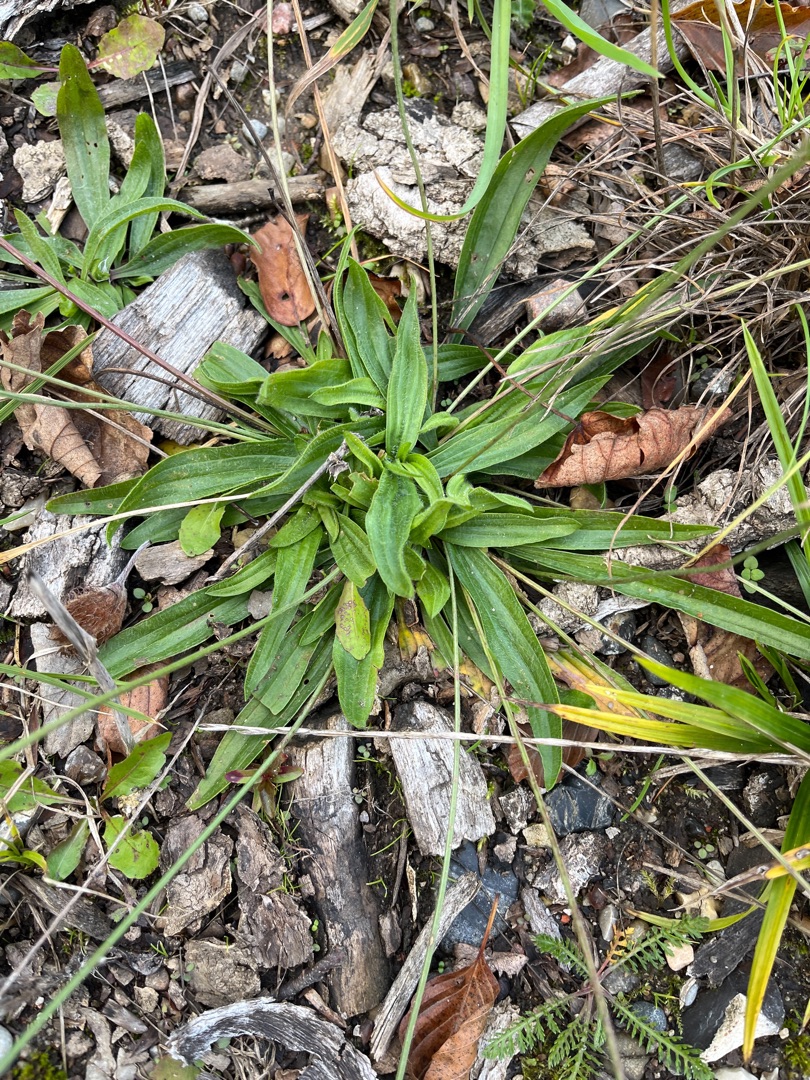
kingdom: Plantae
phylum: Tracheophyta
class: Magnoliopsida
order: Lamiales
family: Plantaginaceae
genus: Plantago
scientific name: Plantago lanceolata
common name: Lancet-vejbred
